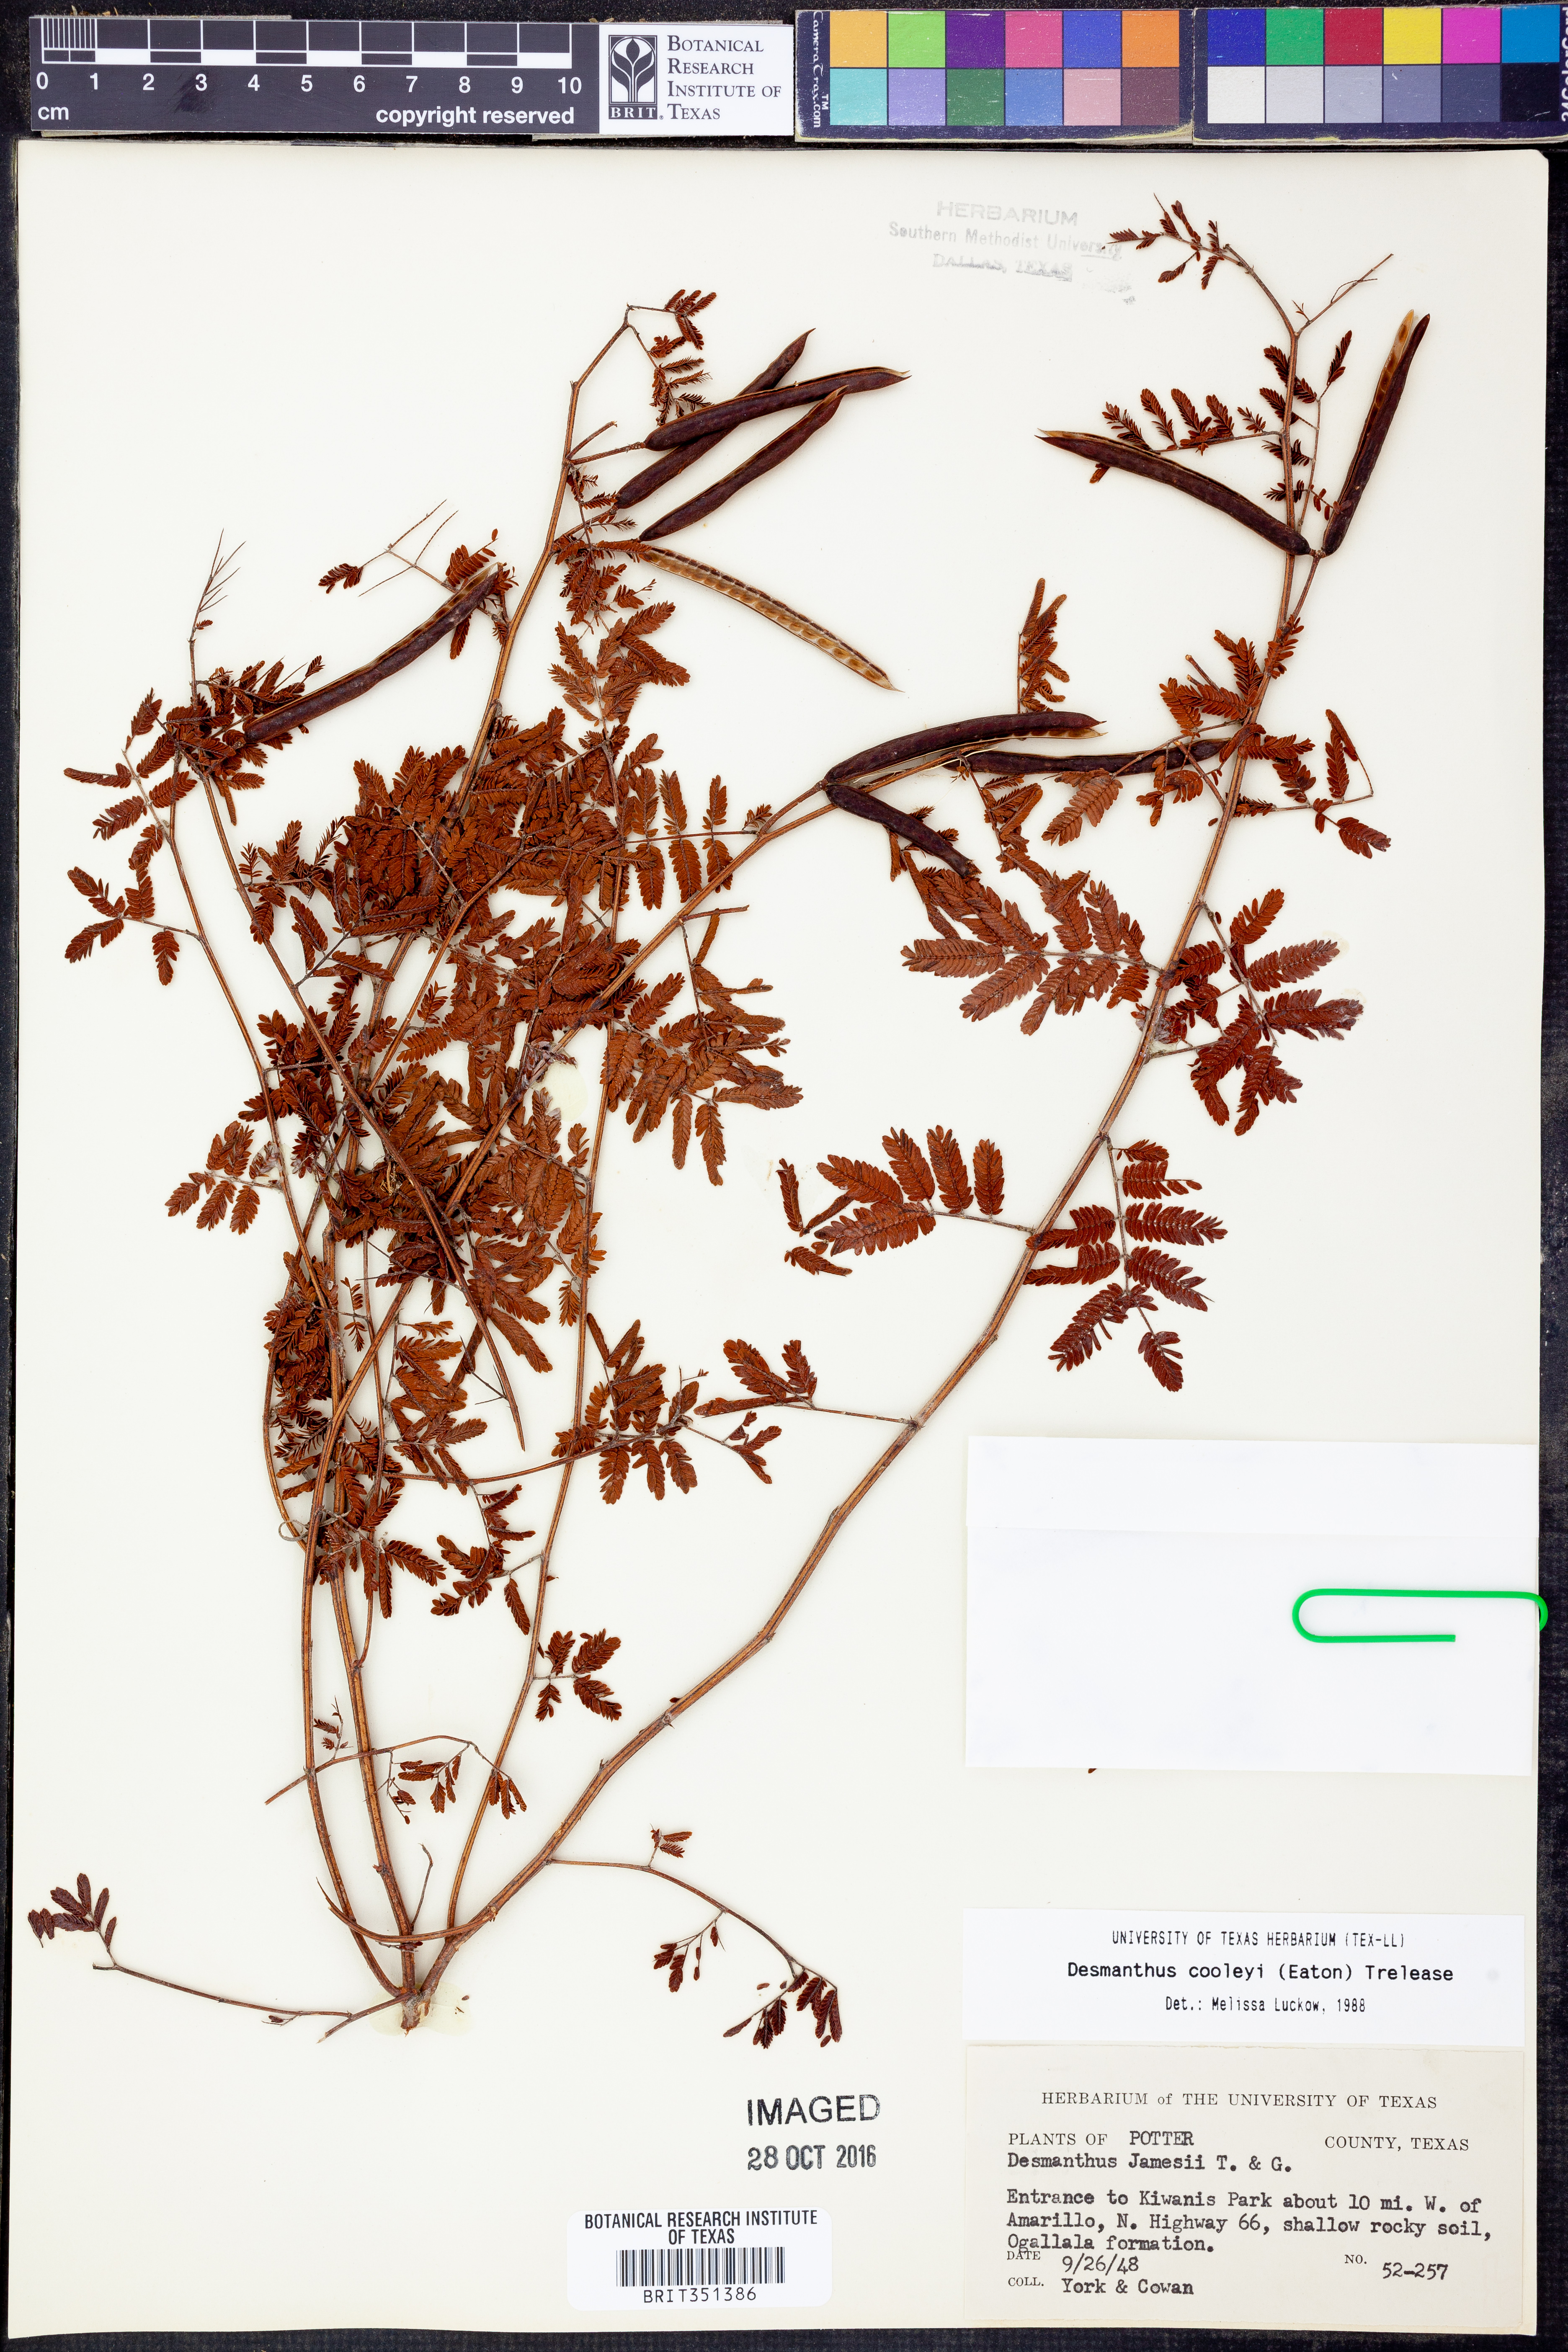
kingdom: Plantae
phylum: Tracheophyta
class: Magnoliopsida
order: Fabales
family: Fabaceae
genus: Desmanthus
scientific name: Desmanthus cooleyi
